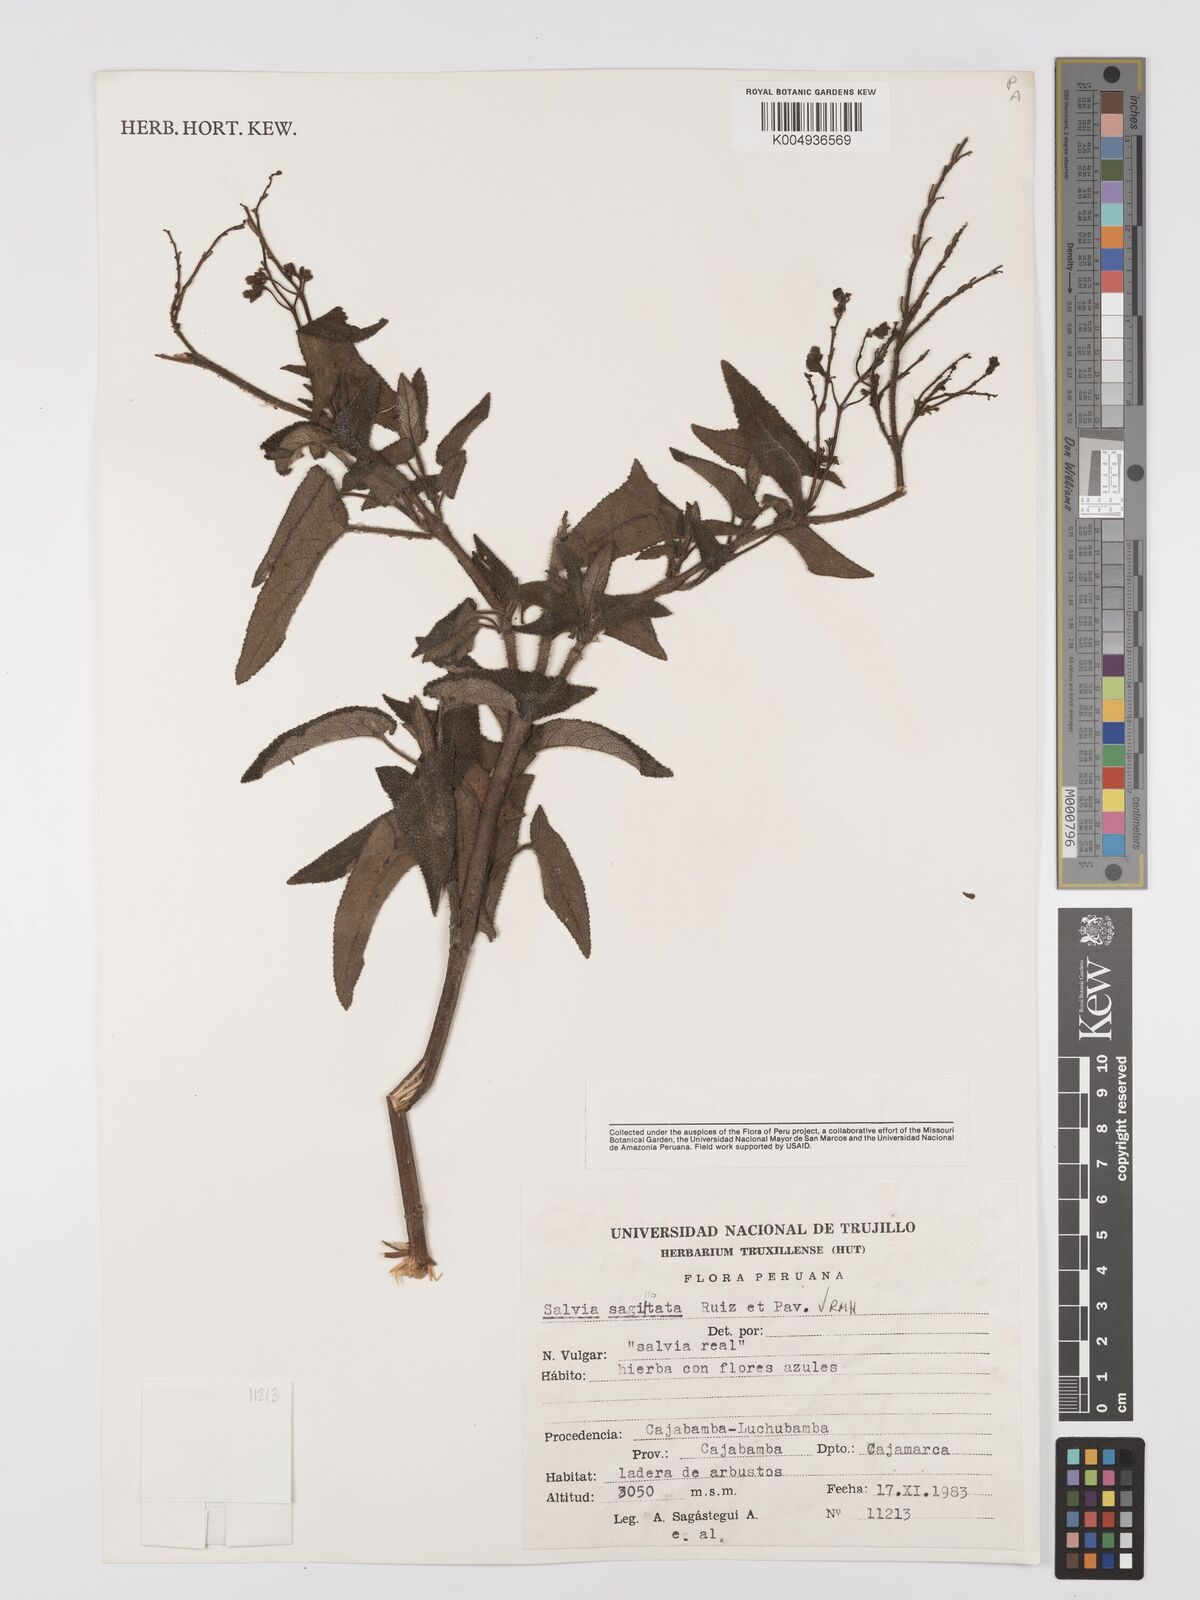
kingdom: Plantae
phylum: Tracheophyta
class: Magnoliopsida
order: Lamiales
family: Lamiaceae
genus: Salvia
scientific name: Salvia sagittata
